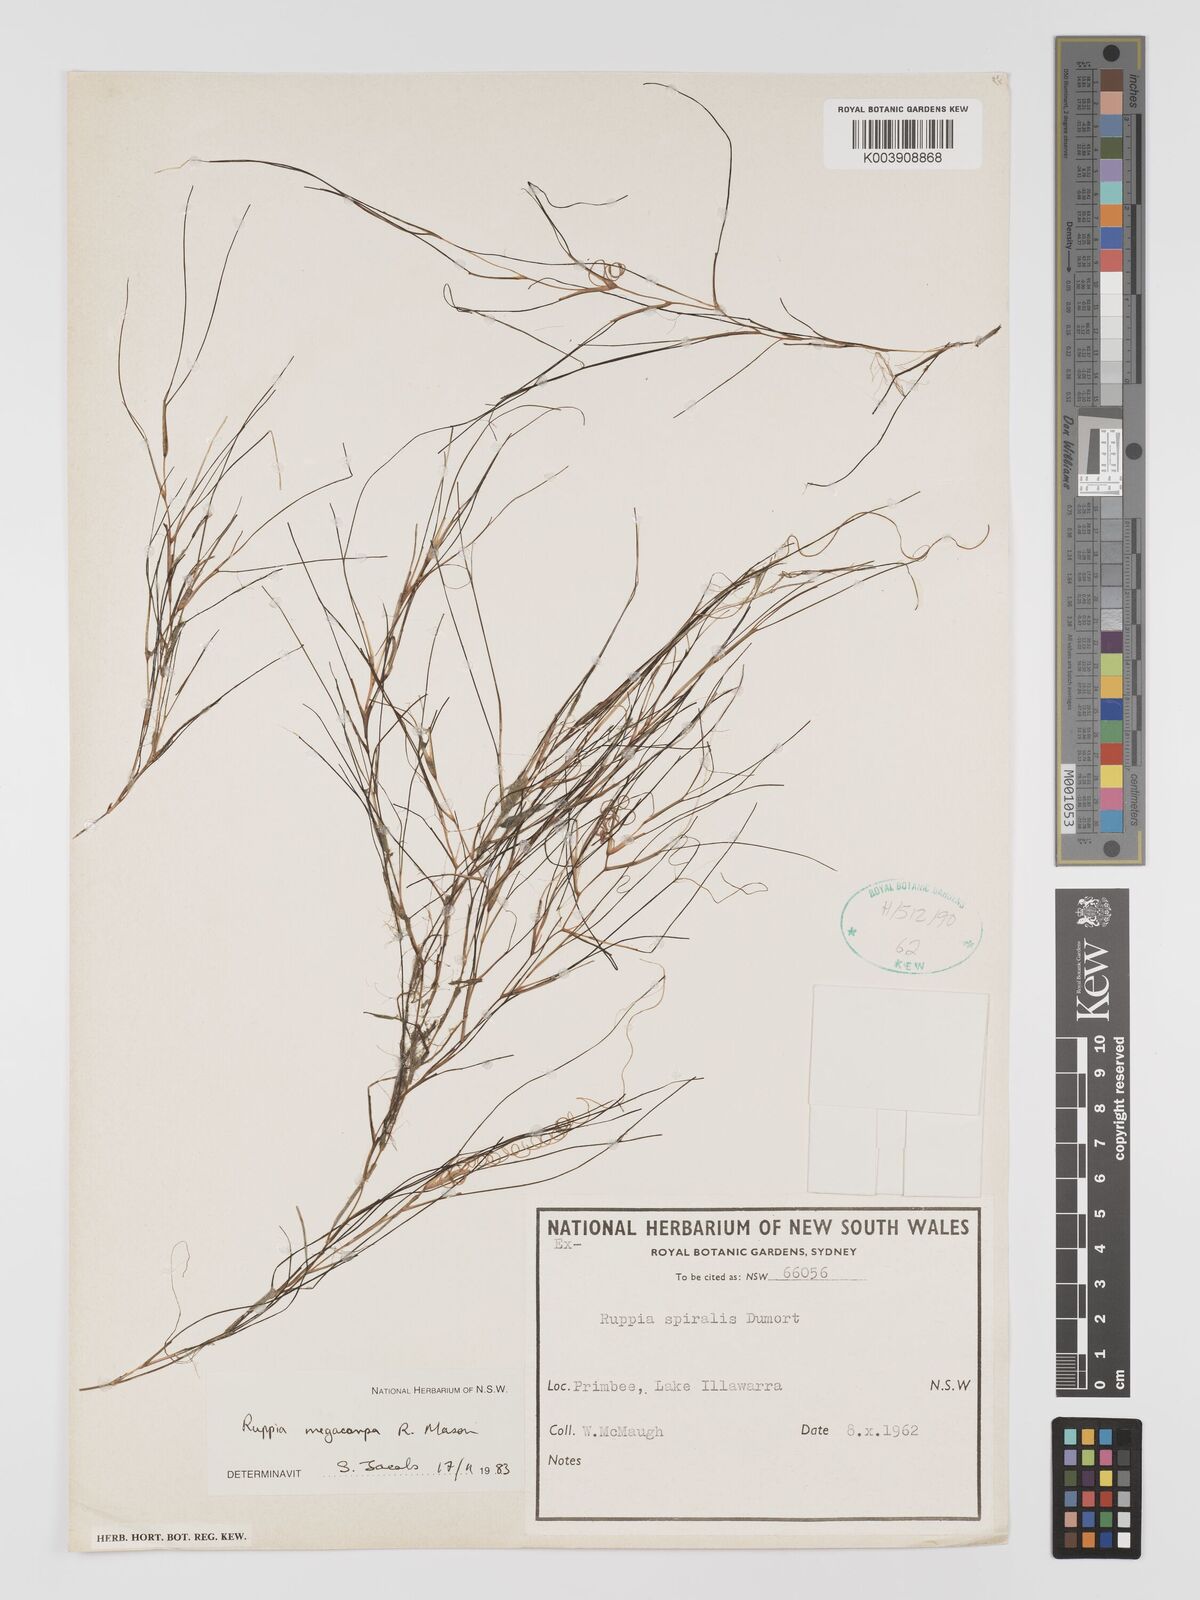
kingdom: Plantae
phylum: Tracheophyta
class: Liliopsida
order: Alismatales
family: Ruppiaceae
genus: Ruppia
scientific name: Ruppia megacarpa
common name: Large-fruit seatassel
